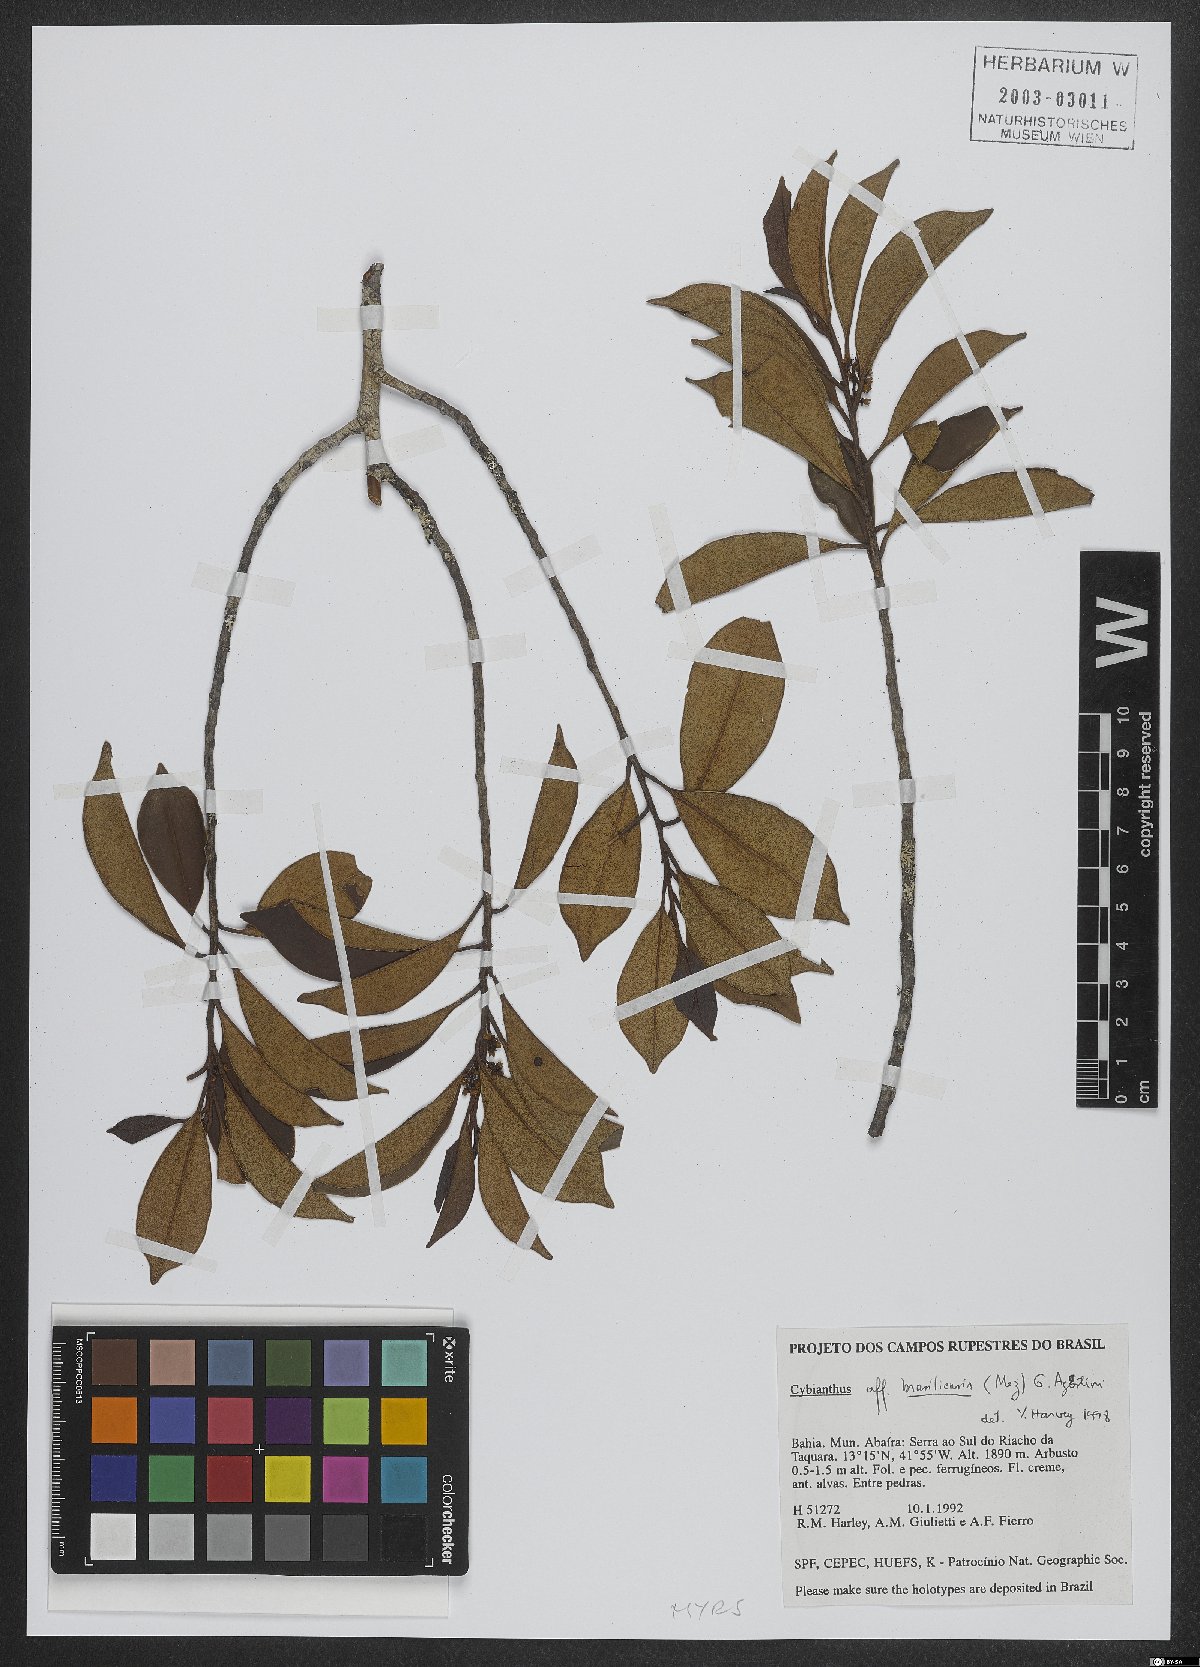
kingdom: Plantae
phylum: Tracheophyta
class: Magnoliopsida
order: Ericales
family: Primulaceae
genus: Cybianthus
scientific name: Cybianthus peruvianus
